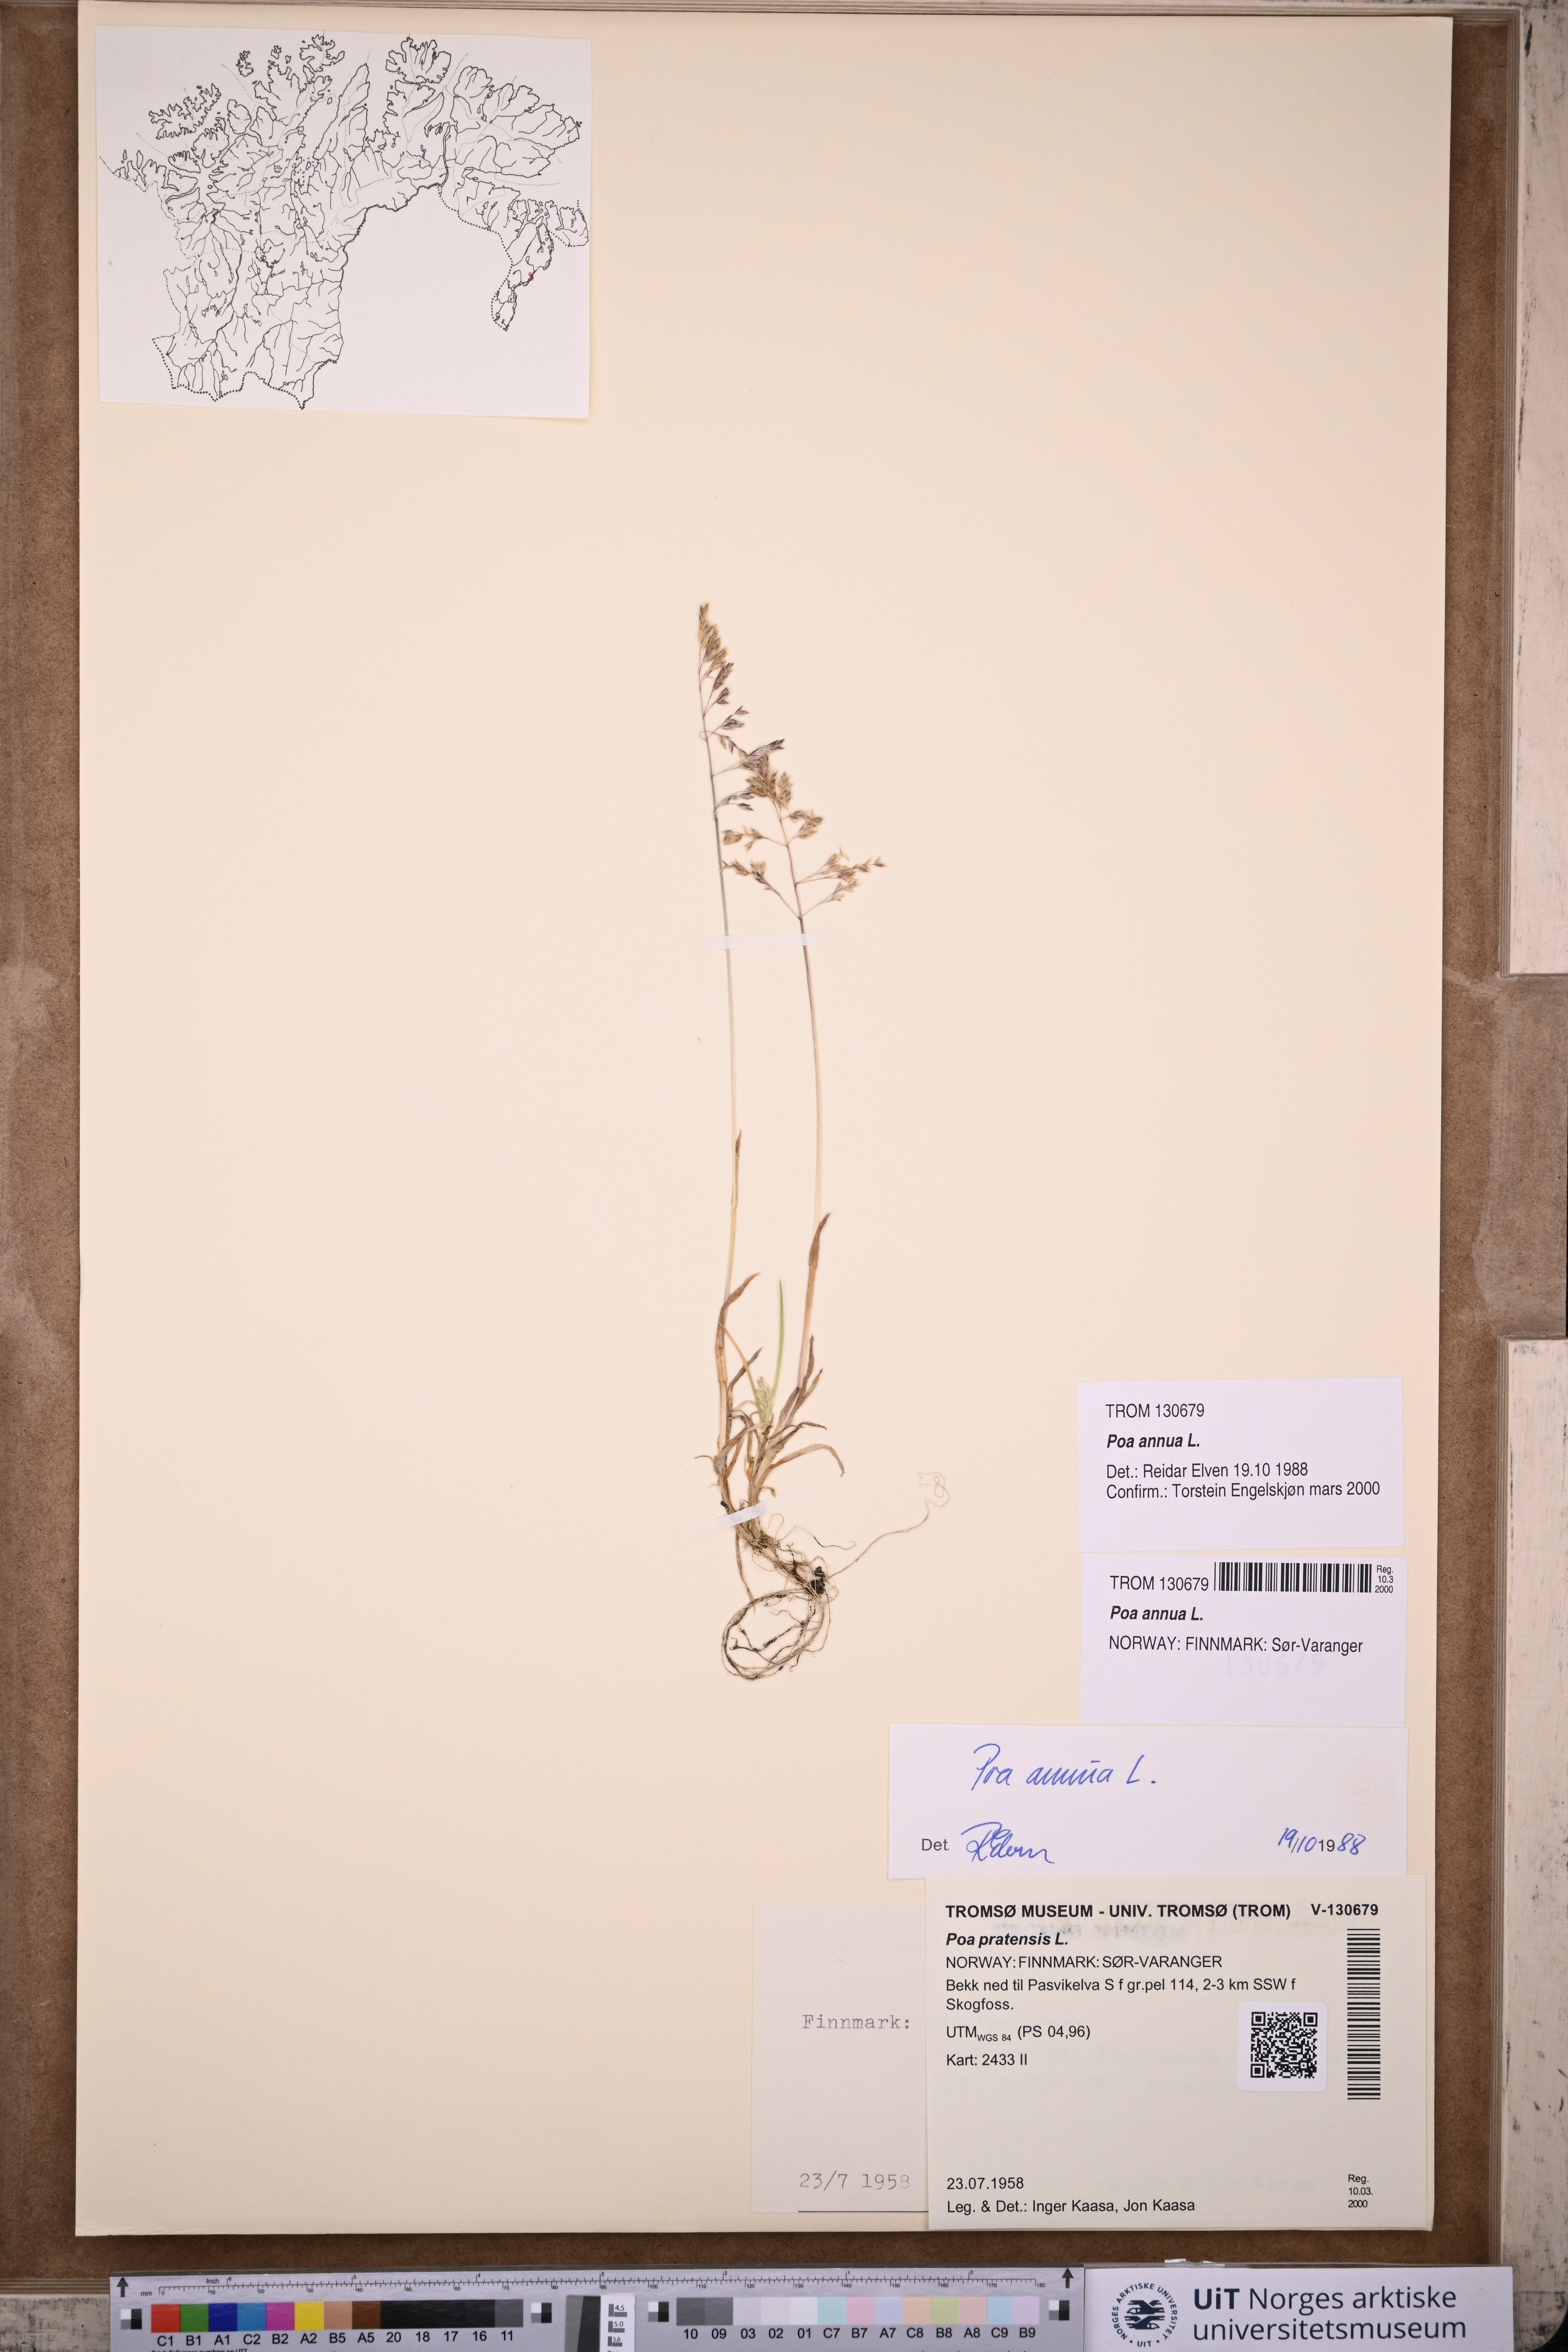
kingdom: Plantae
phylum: Tracheophyta
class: Liliopsida
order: Poales
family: Poaceae
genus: Poa
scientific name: Poa annua
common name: Annual bluegrass
